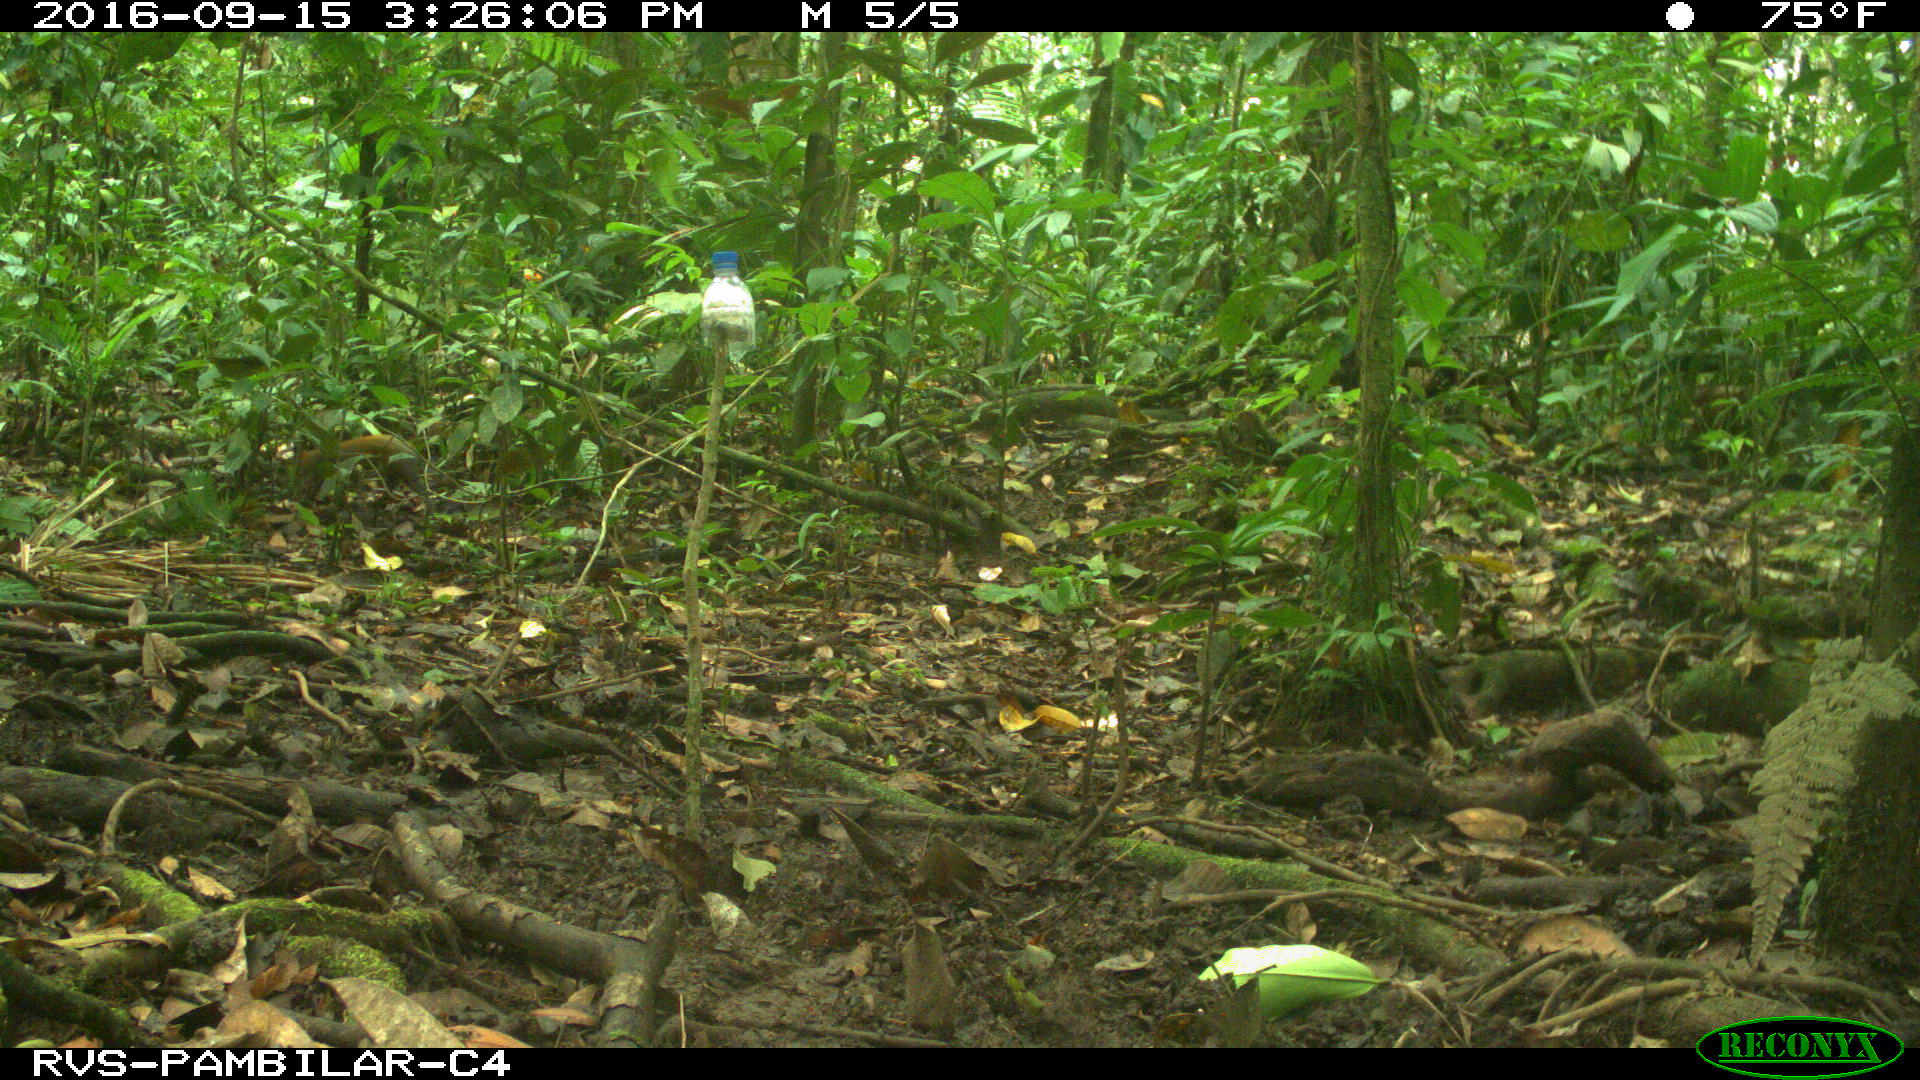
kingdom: Animalia
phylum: Chordata
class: Mammalia
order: Rodentia
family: Dasyproctidae
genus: Dasyprocta
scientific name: Dasyprocta punctata
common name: Central american agouti
